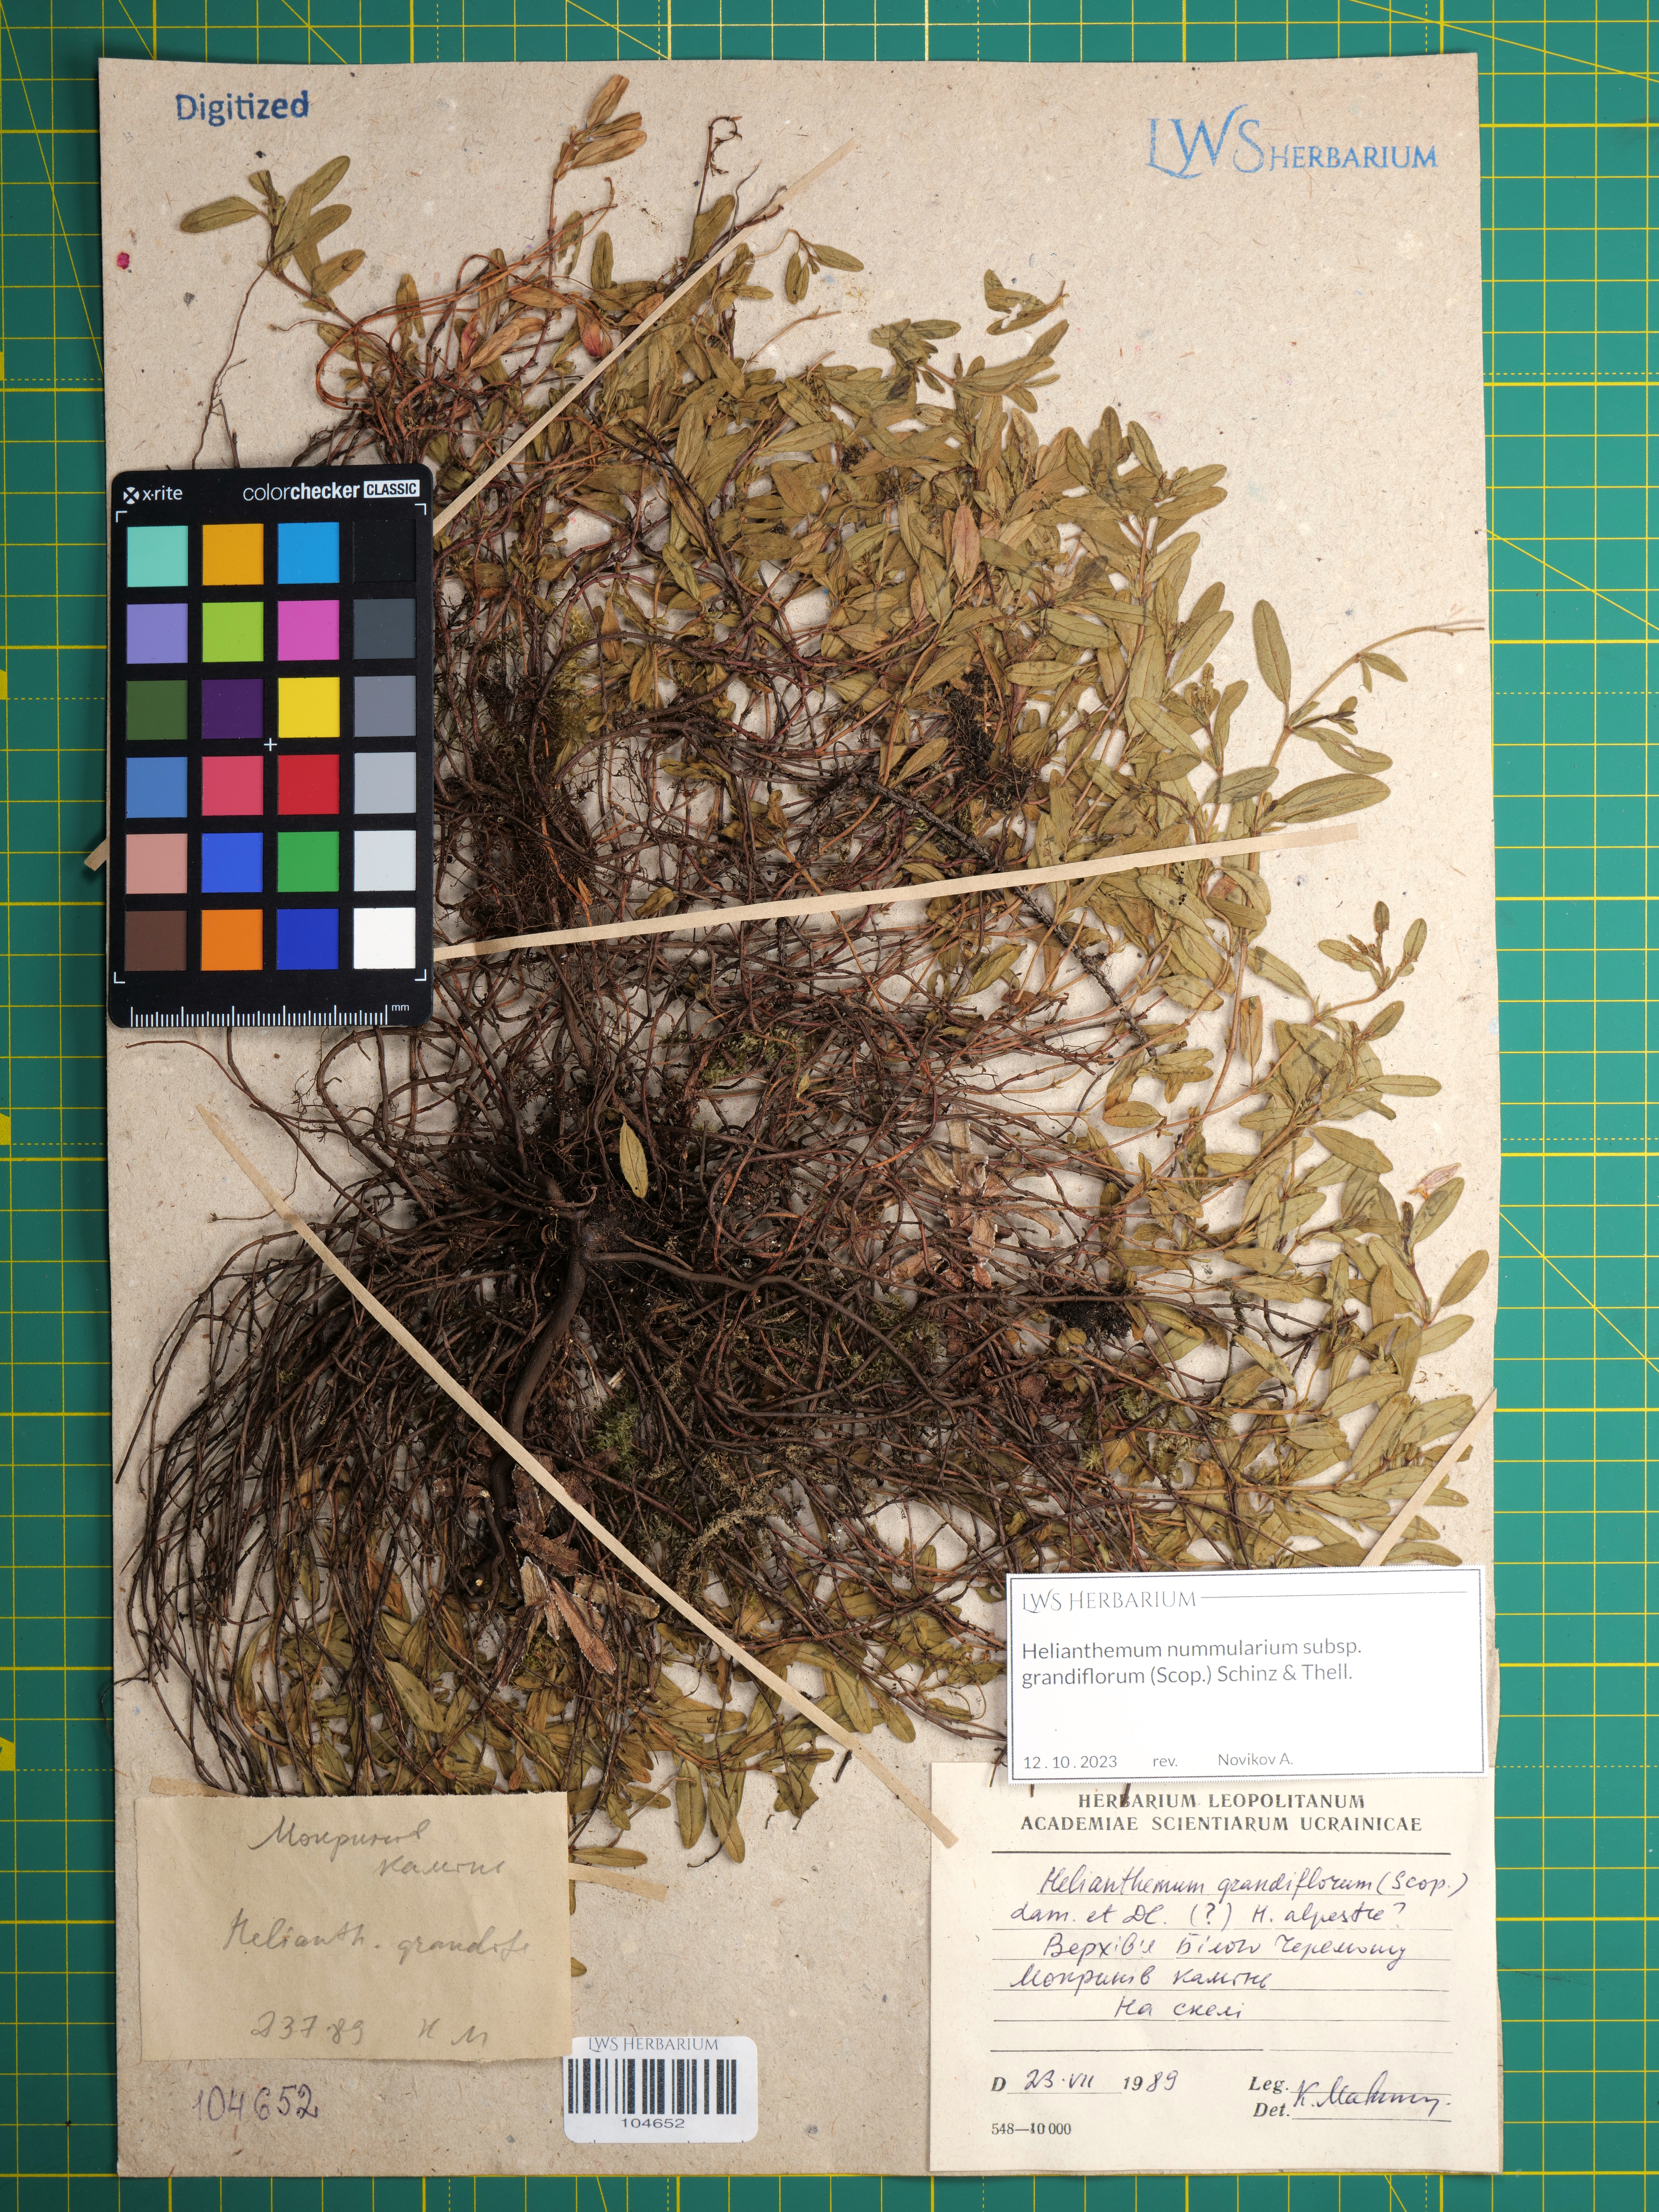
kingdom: Plantae
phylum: Tracheophyta
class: Magnoliopsida
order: Malvales
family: Cistaceae
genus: Helianthemum
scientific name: Helianthemum nummularium
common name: Common rock-rose
